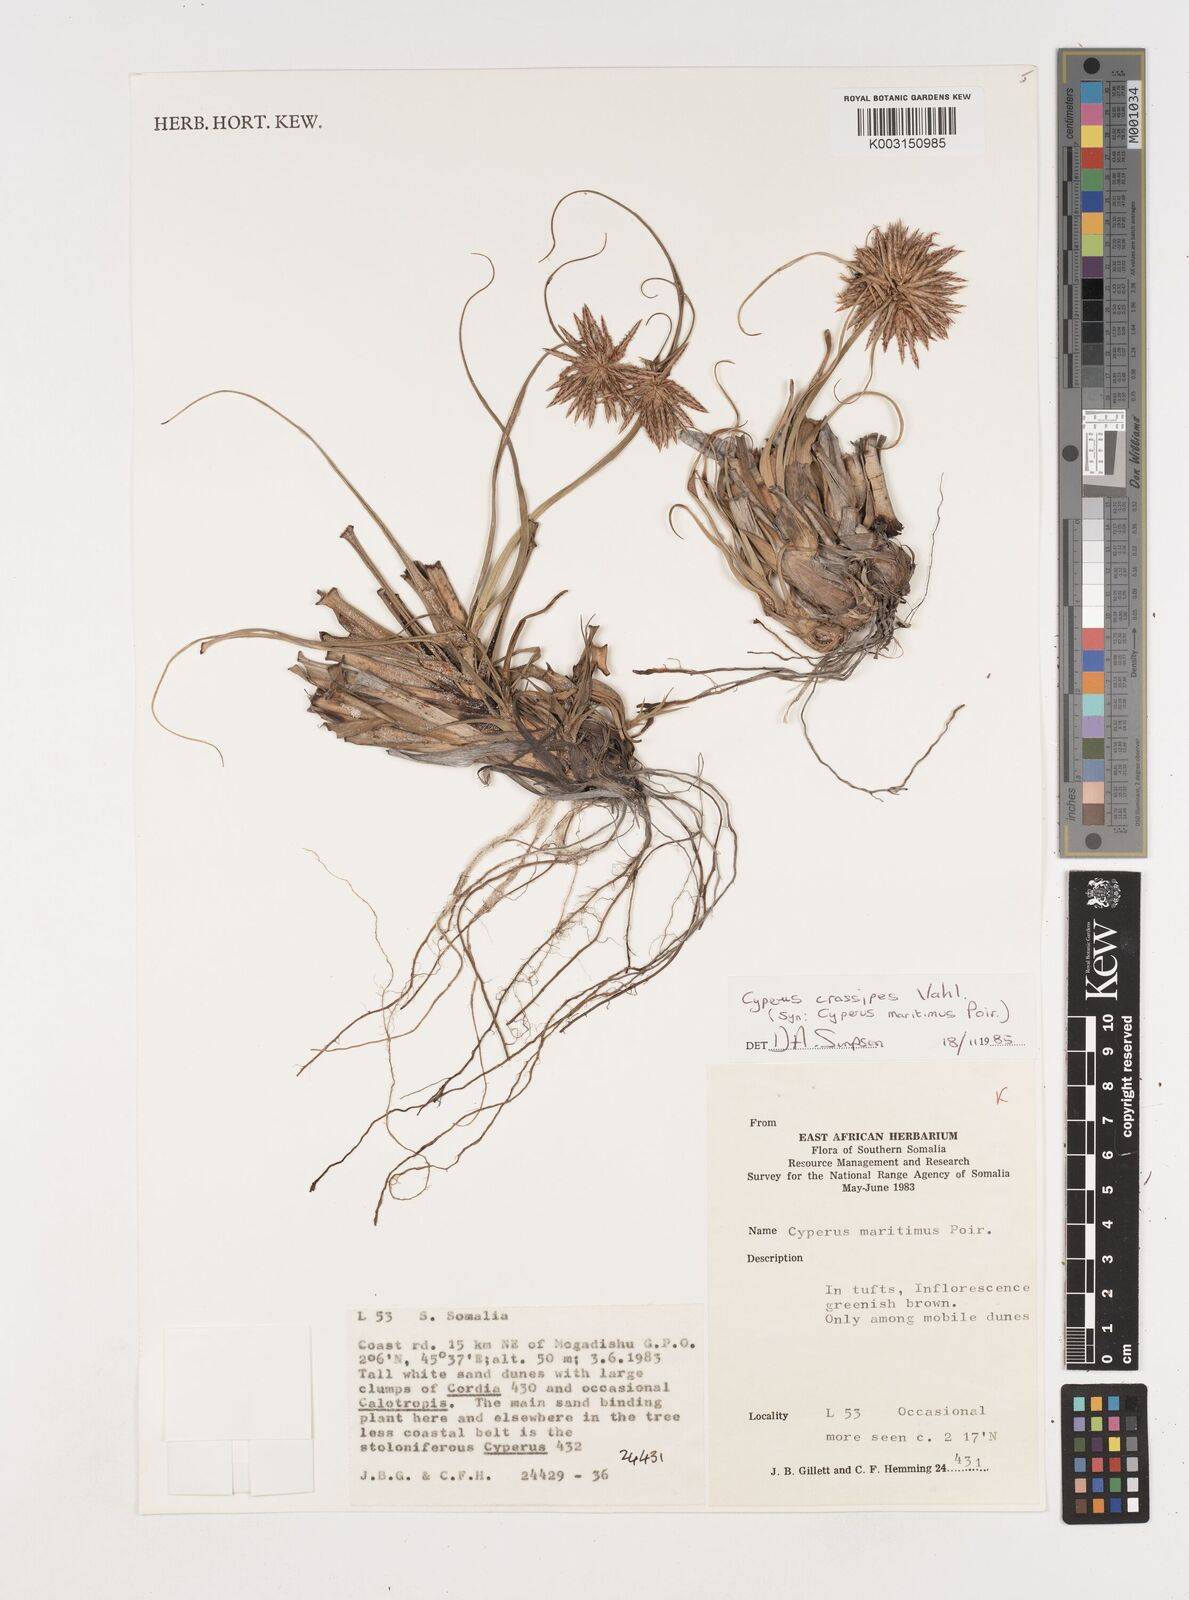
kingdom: Plantae
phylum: Tracheophyta
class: Liliopsida
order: Poales
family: Cyperaceae
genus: Cyperus
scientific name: Cyperus crassipes
